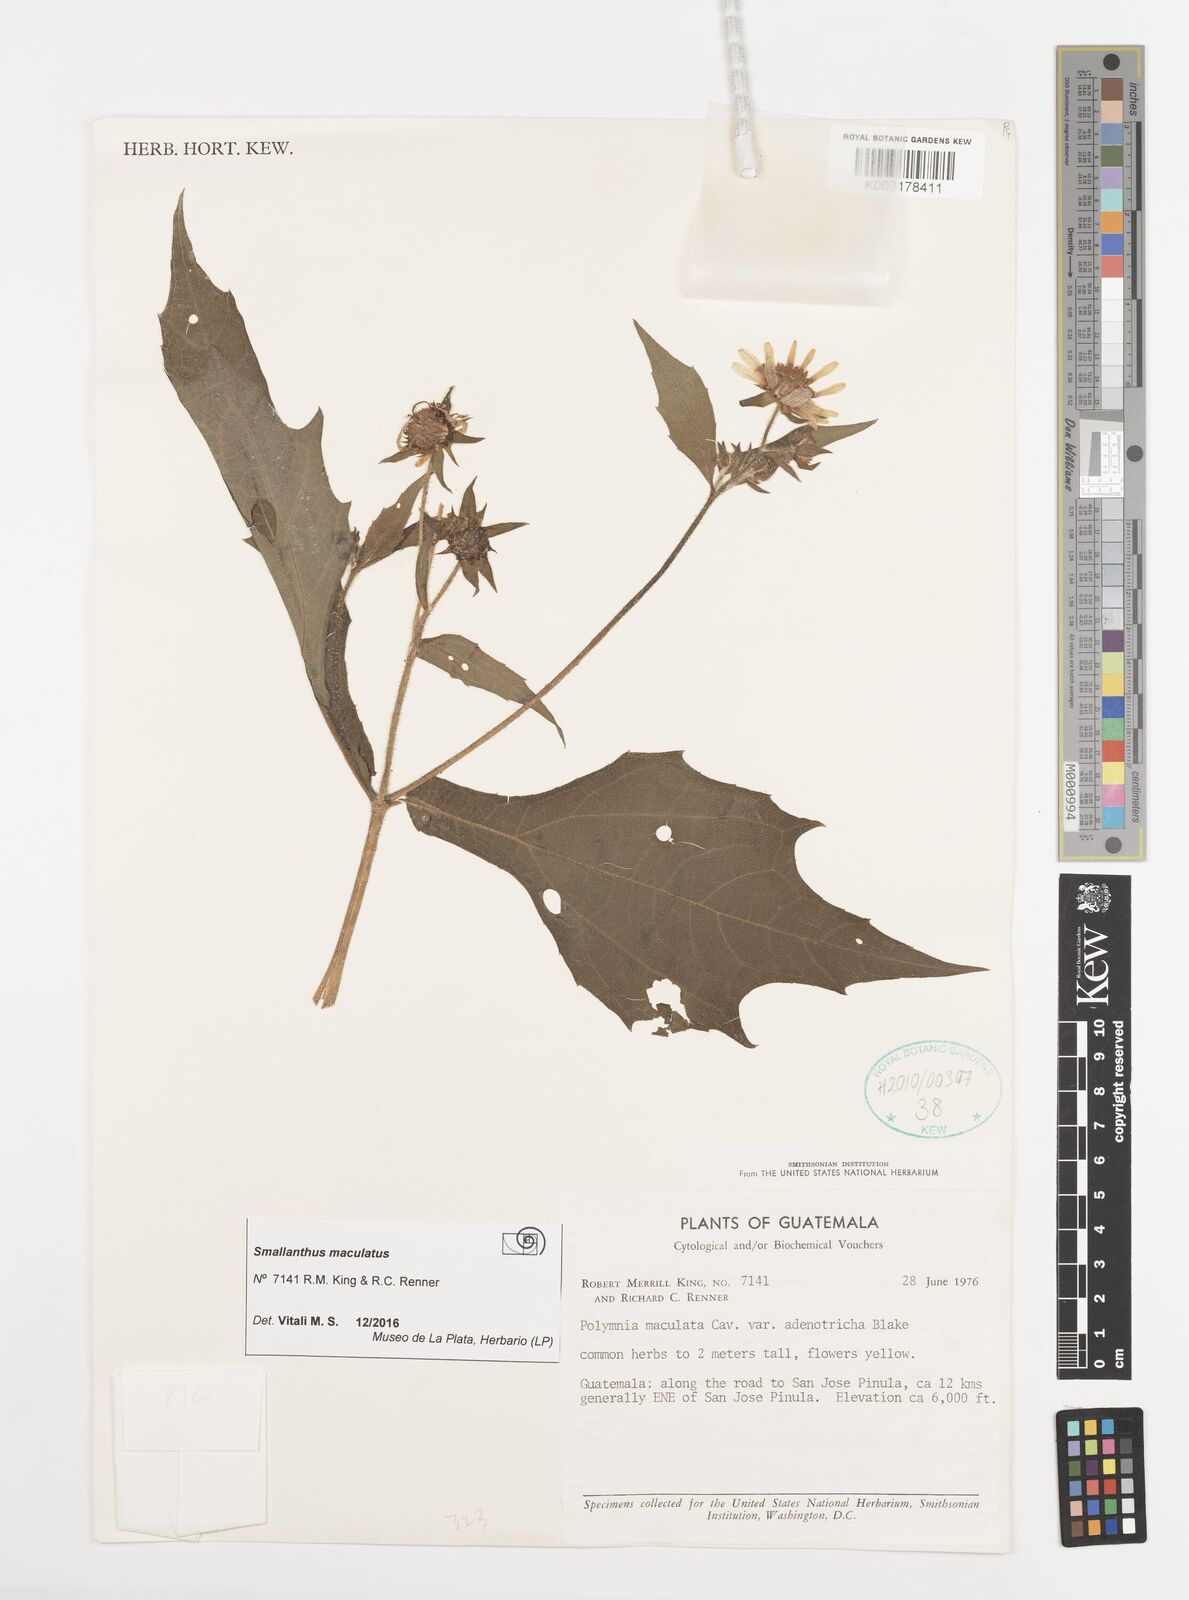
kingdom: Plantae
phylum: Tracheophyta
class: Magnoliopsida
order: Asterales
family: Asteraceae
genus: Smallanthus
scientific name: Smallanthus maculatus
